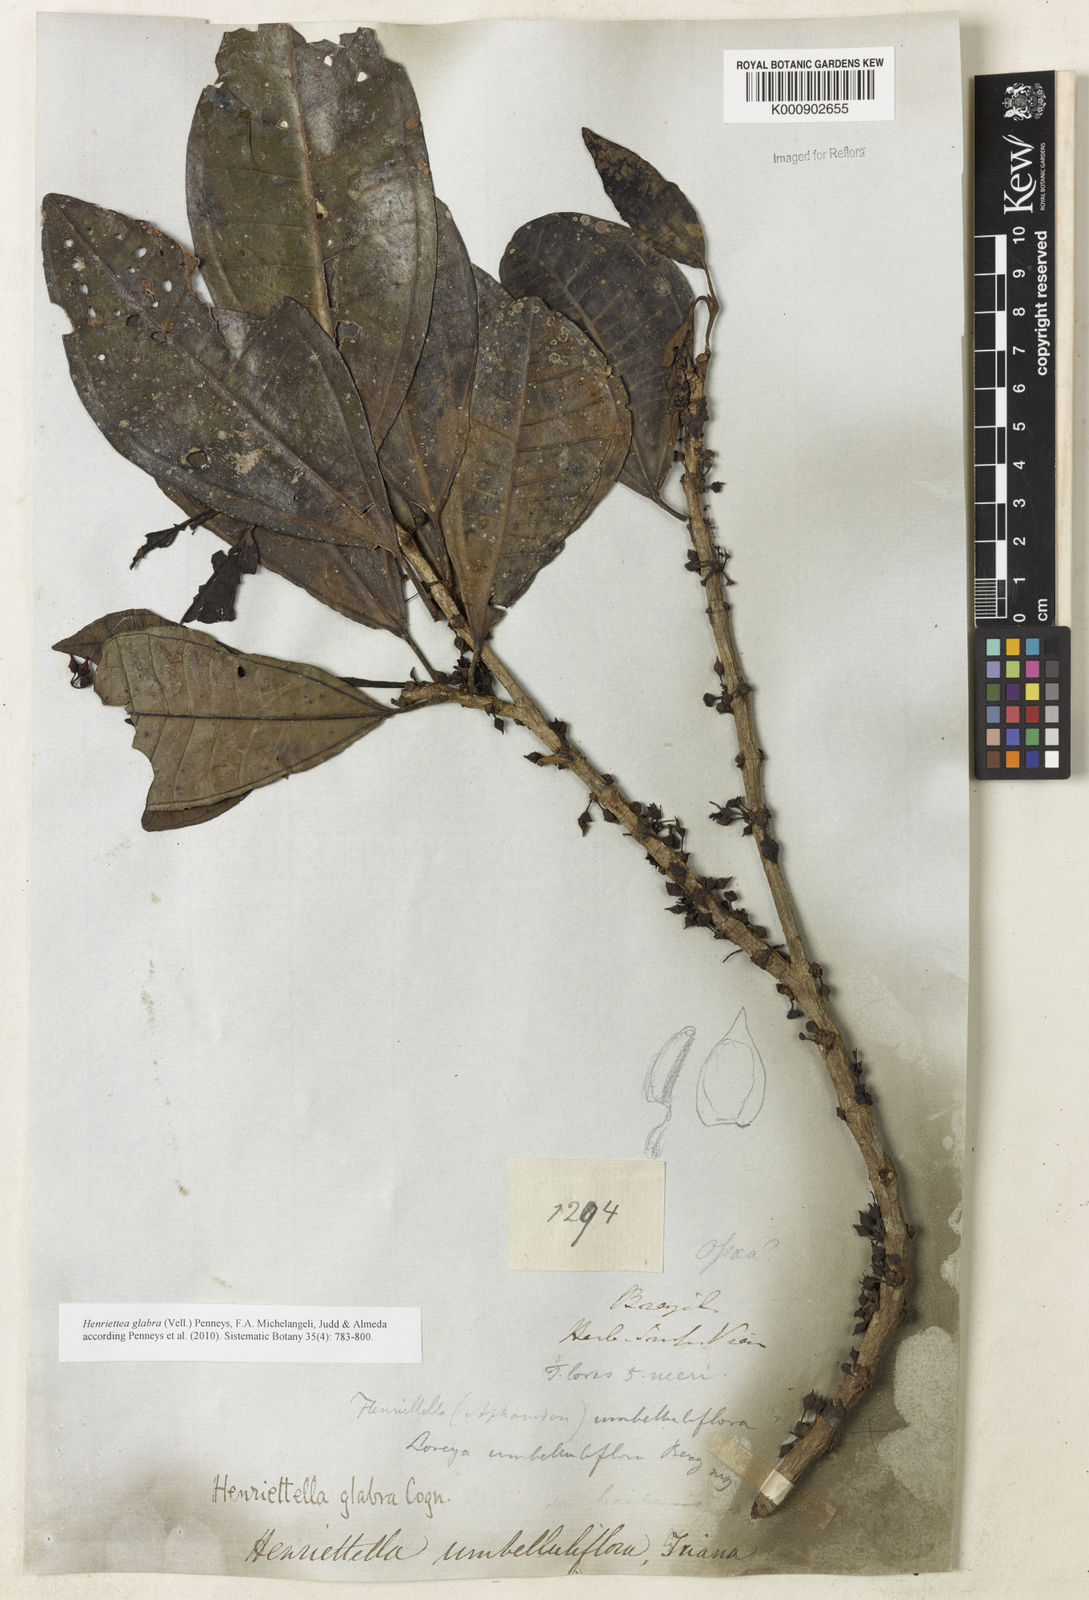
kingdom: Plantae
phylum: Tracheophyta
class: Magnoliopsida
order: Myrtales
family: Melastomataceae
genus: Henriettea
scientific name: Henriettea glabra
